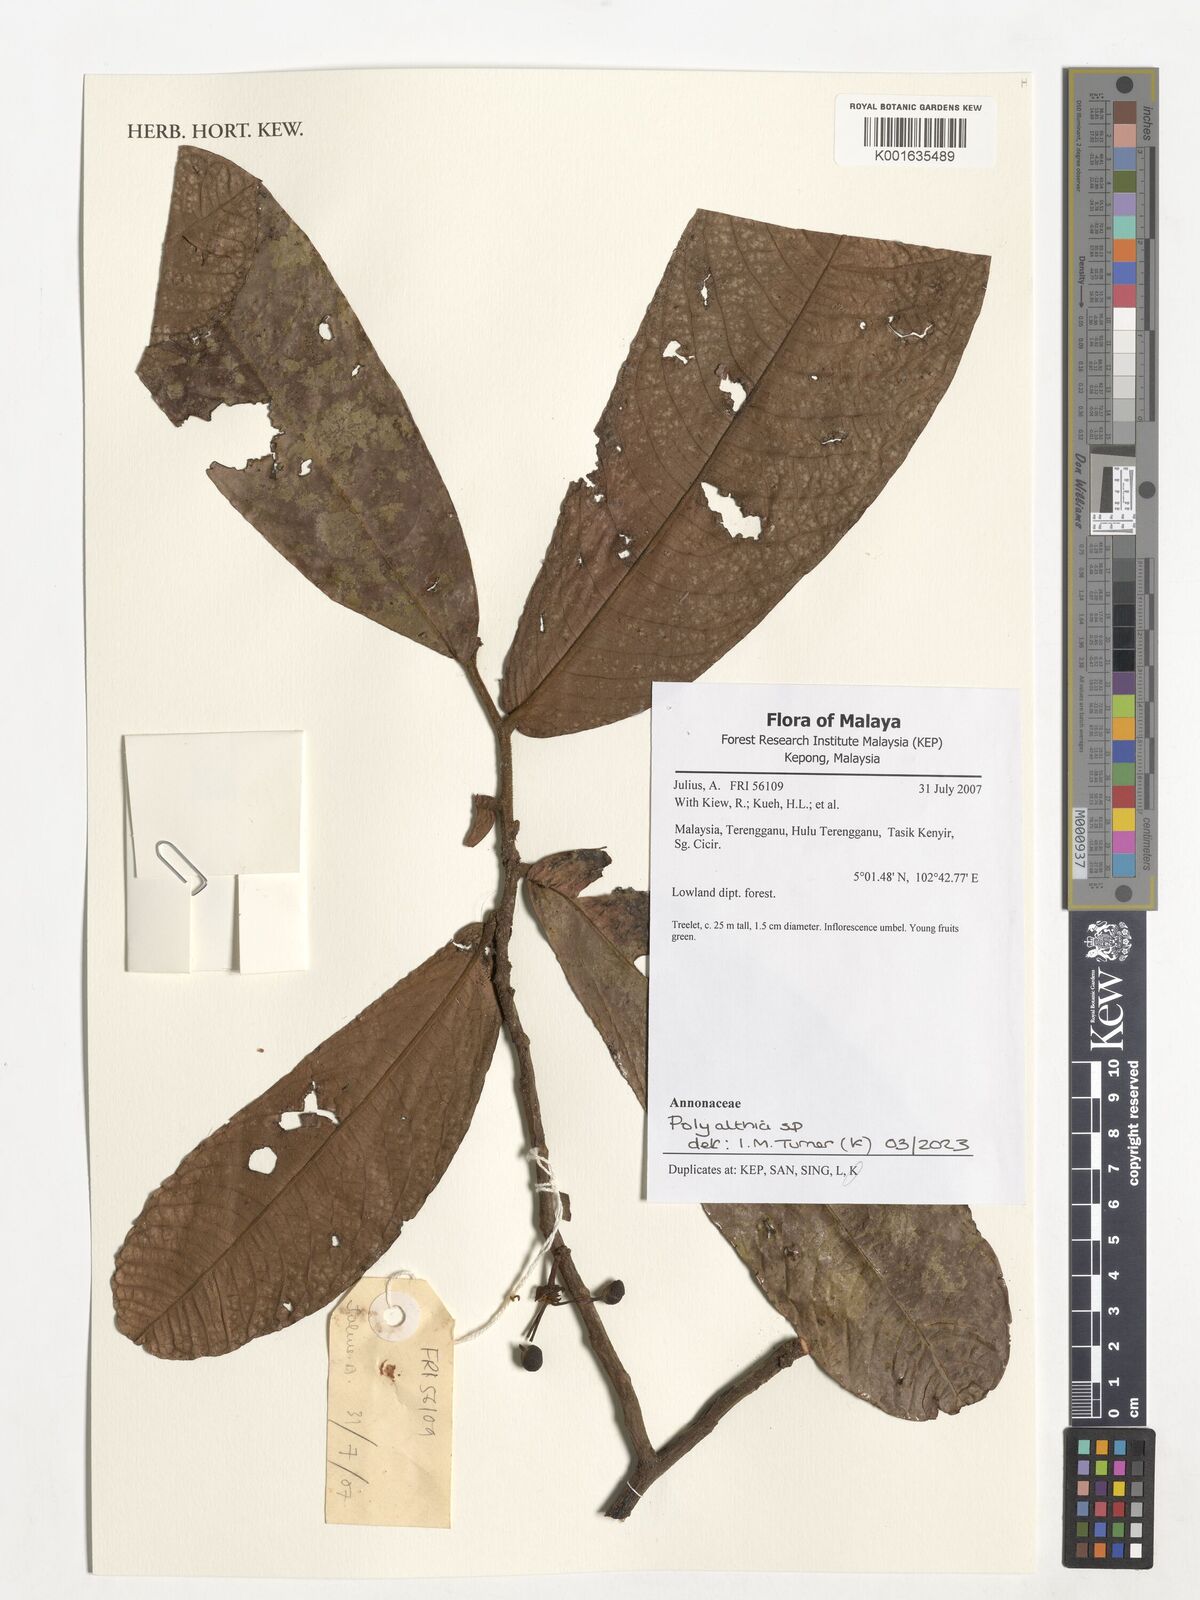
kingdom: Plantae
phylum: Tracheophyta
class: Magnoliopsida
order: Magnoliales
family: Annonaceae
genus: Polyalthia
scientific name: Polyalthia
